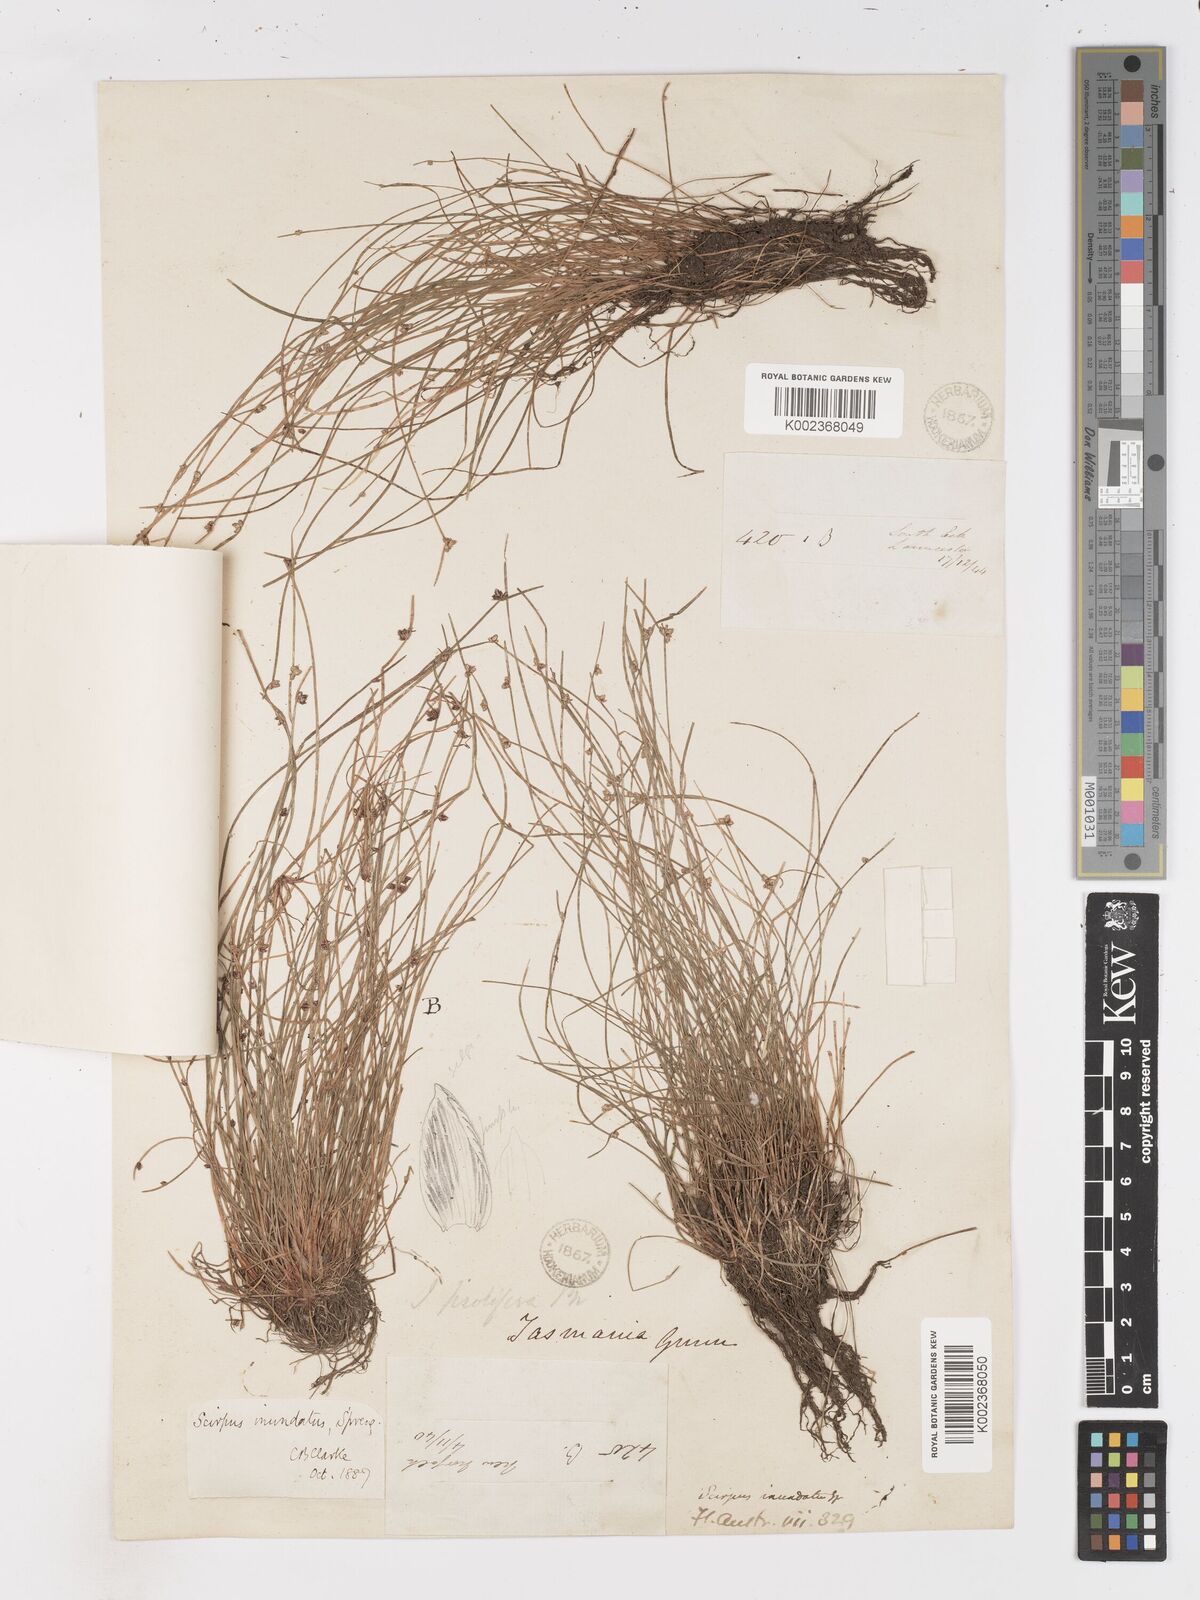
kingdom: Plantae
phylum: Tracheophyta
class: Liliopsida
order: Poales
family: Cyperaceae
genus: Isolepis
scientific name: Isolepis inundata
